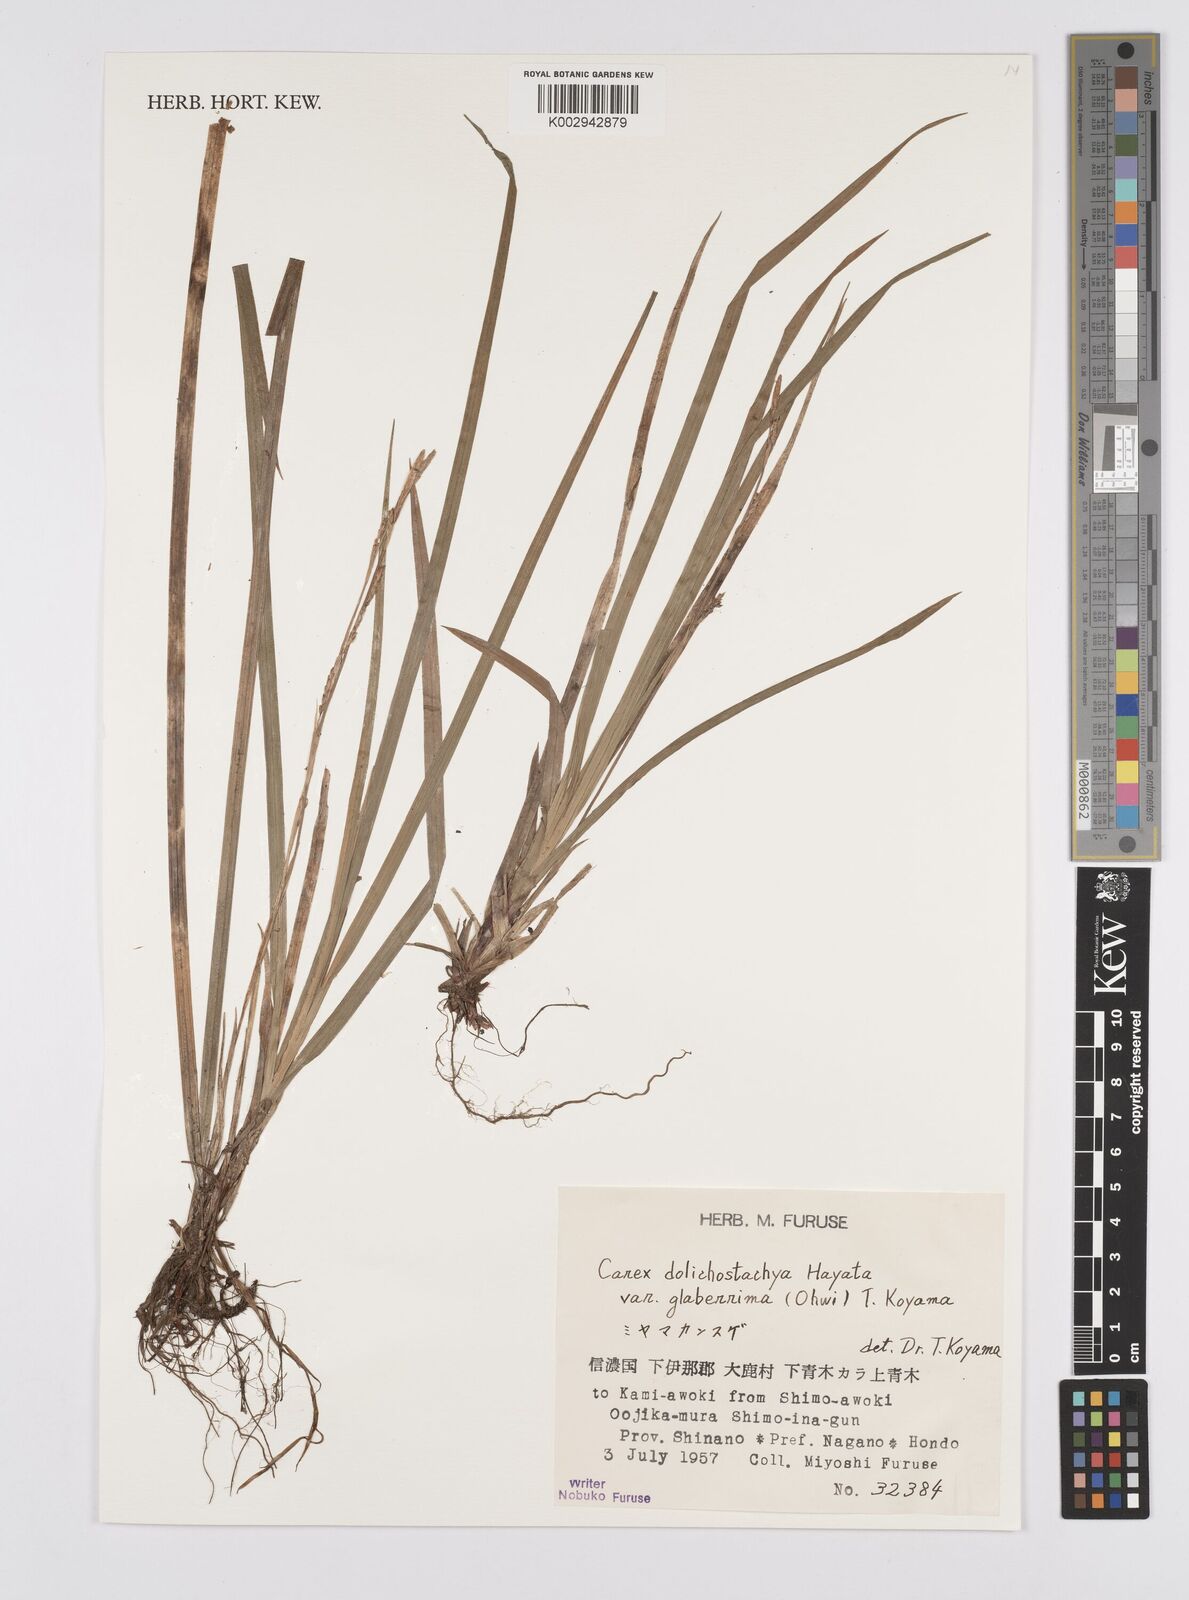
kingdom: Plantae
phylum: Tracheophyta
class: Liliopsida
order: Poales
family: Cyperaceae
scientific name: Cyperaceae
